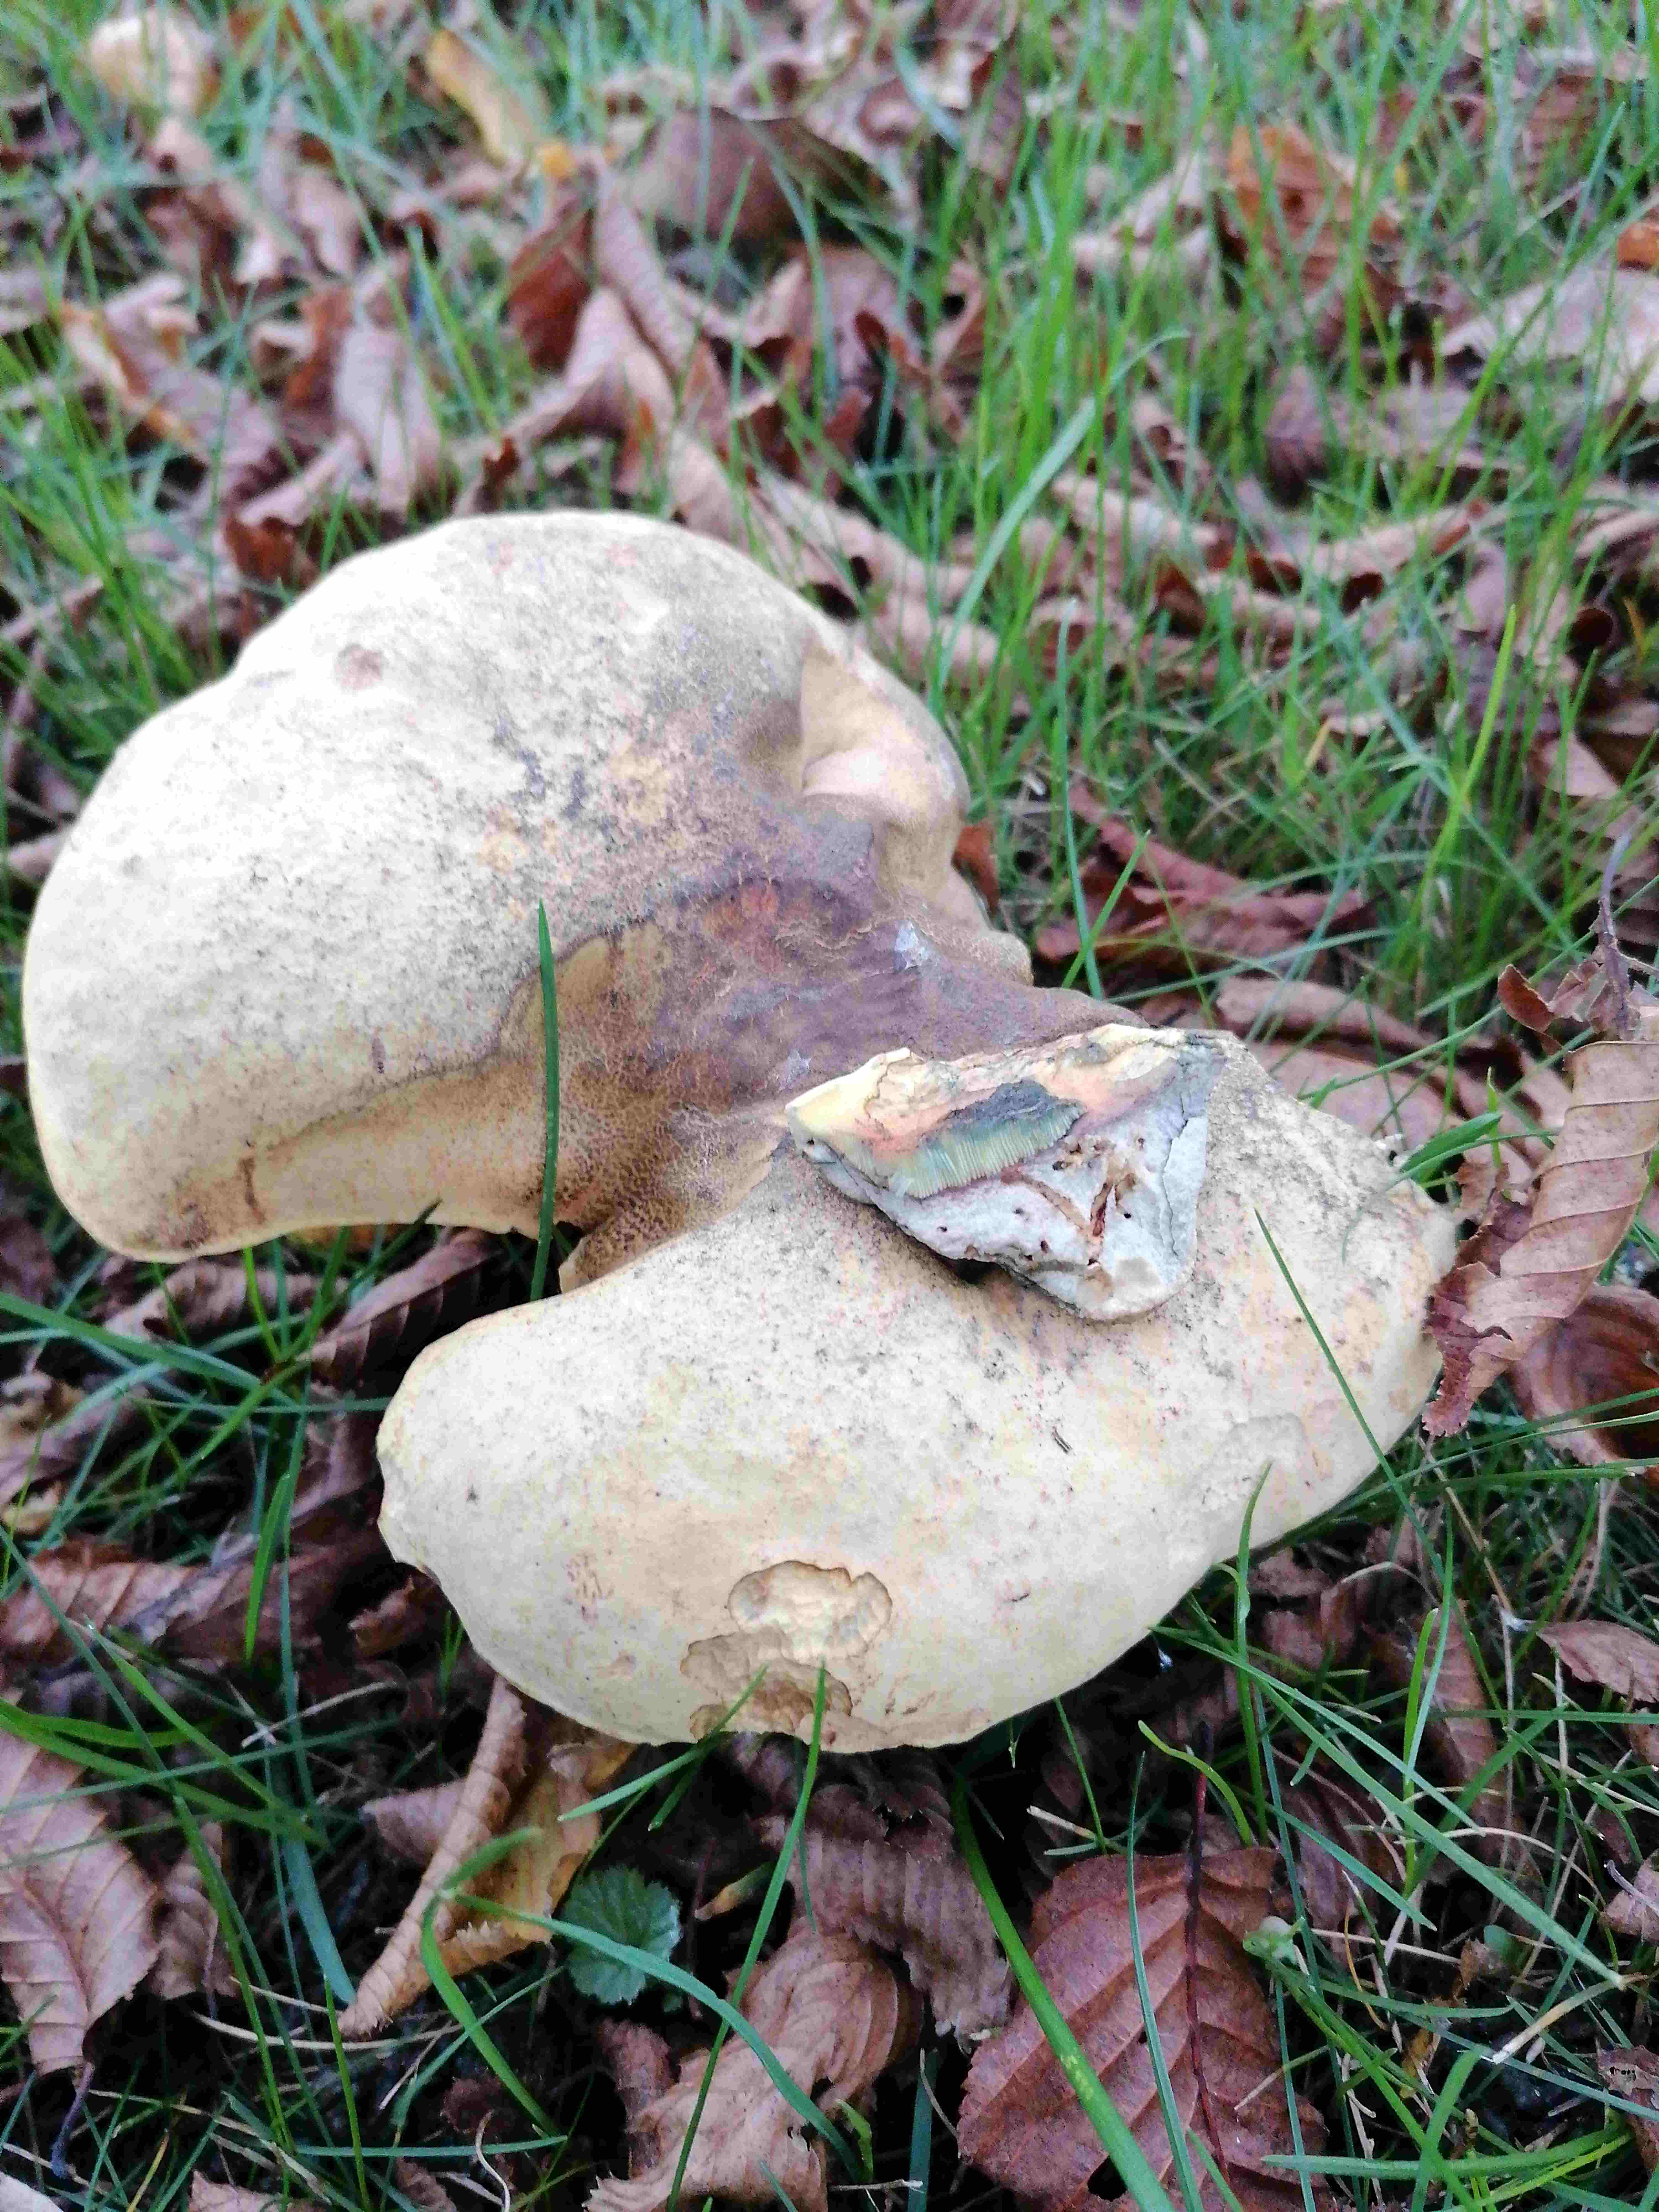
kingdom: Fungi
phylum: Basidiomycota
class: Agaricomycetes
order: Boletales
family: Boletaceae
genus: Suillellus
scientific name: Suillellus luridus
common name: netstokket indigorørhat
